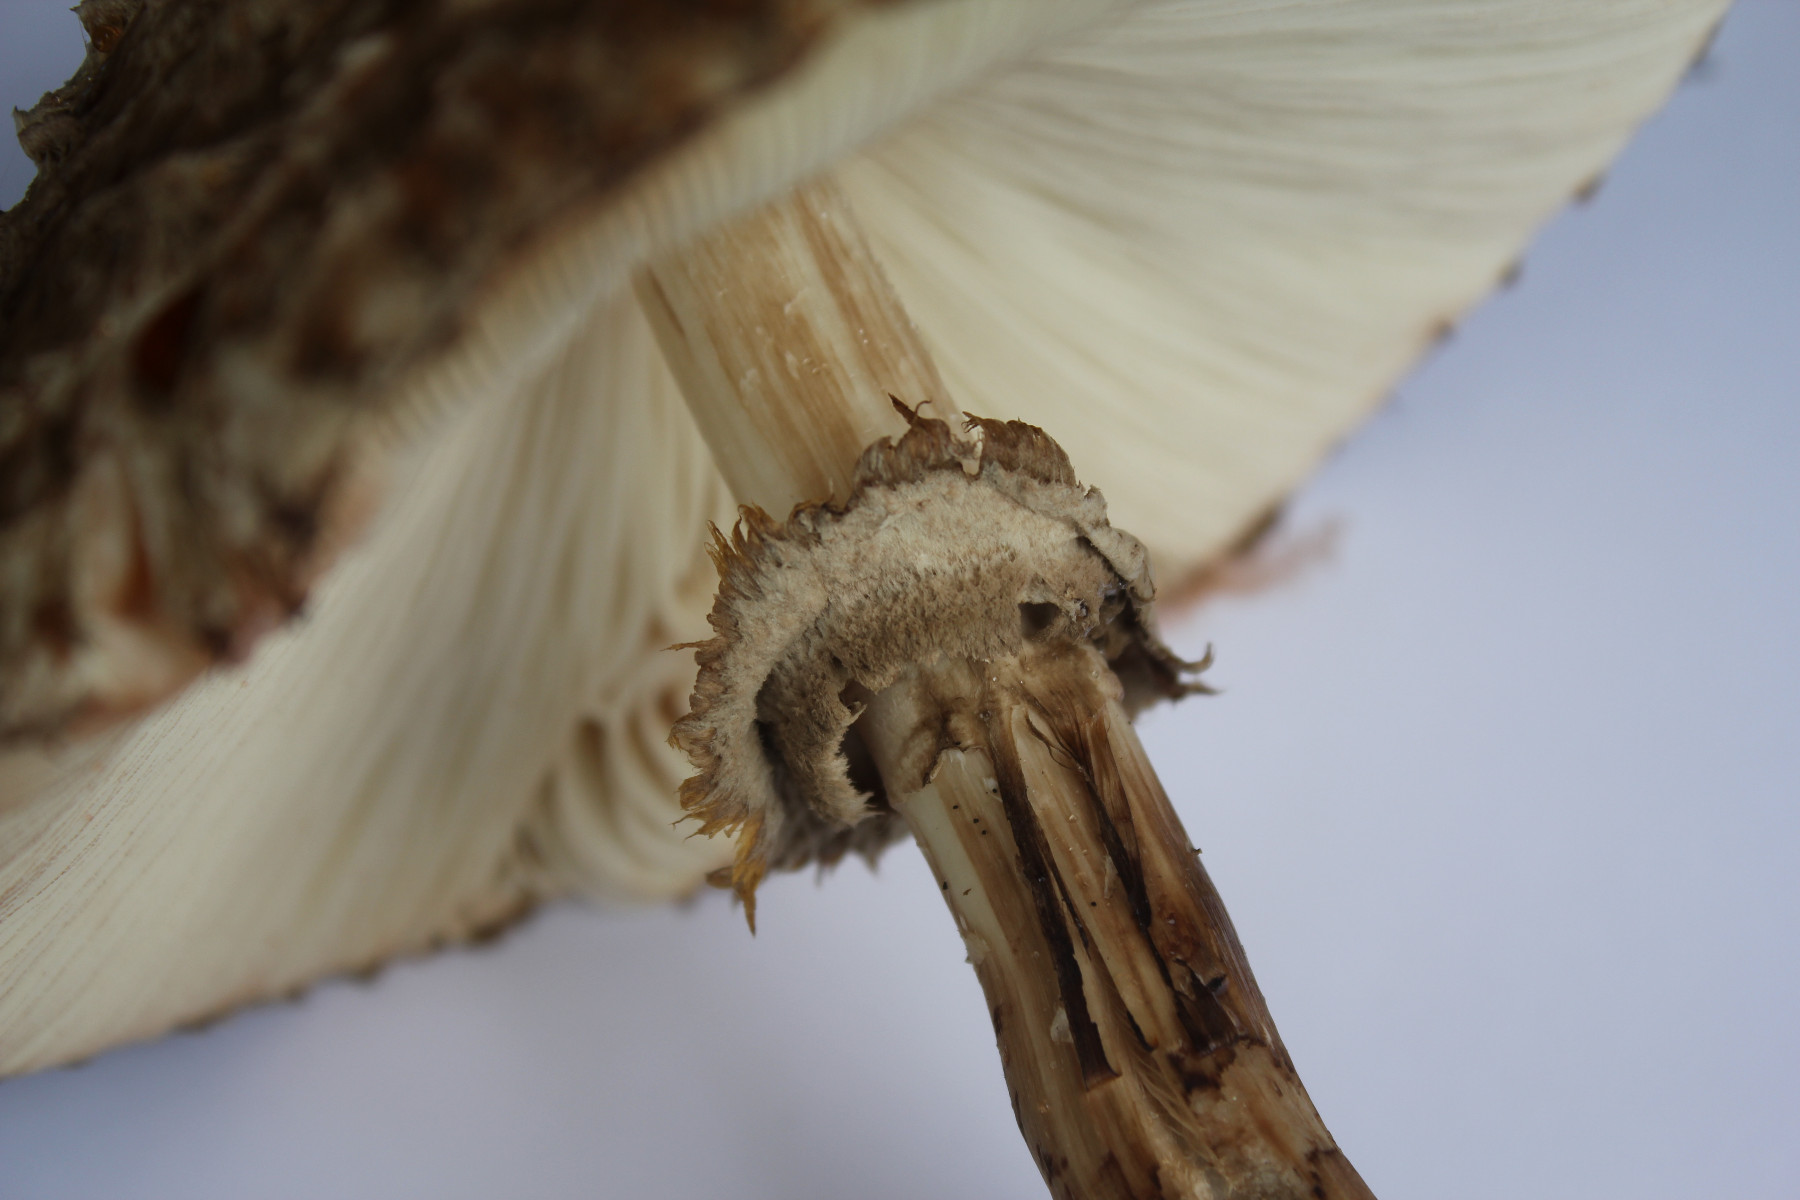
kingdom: Fungi
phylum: Basidiomycota
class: Agaricomycetes
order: Agaricales
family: Agaricaceae
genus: Chlorophyllum
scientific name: Chlorophyllum olivieri
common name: almindelig rabarberhat
